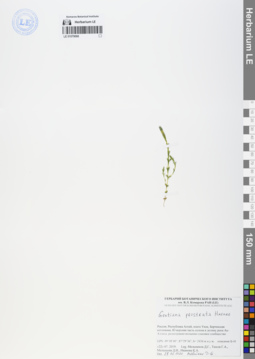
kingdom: Plantae
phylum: Tracheophyta
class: Magnoliopsida
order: Gentianales
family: Gentianaceae
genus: Gentiana
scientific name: Gentiana prostrata
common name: Moss gentian
